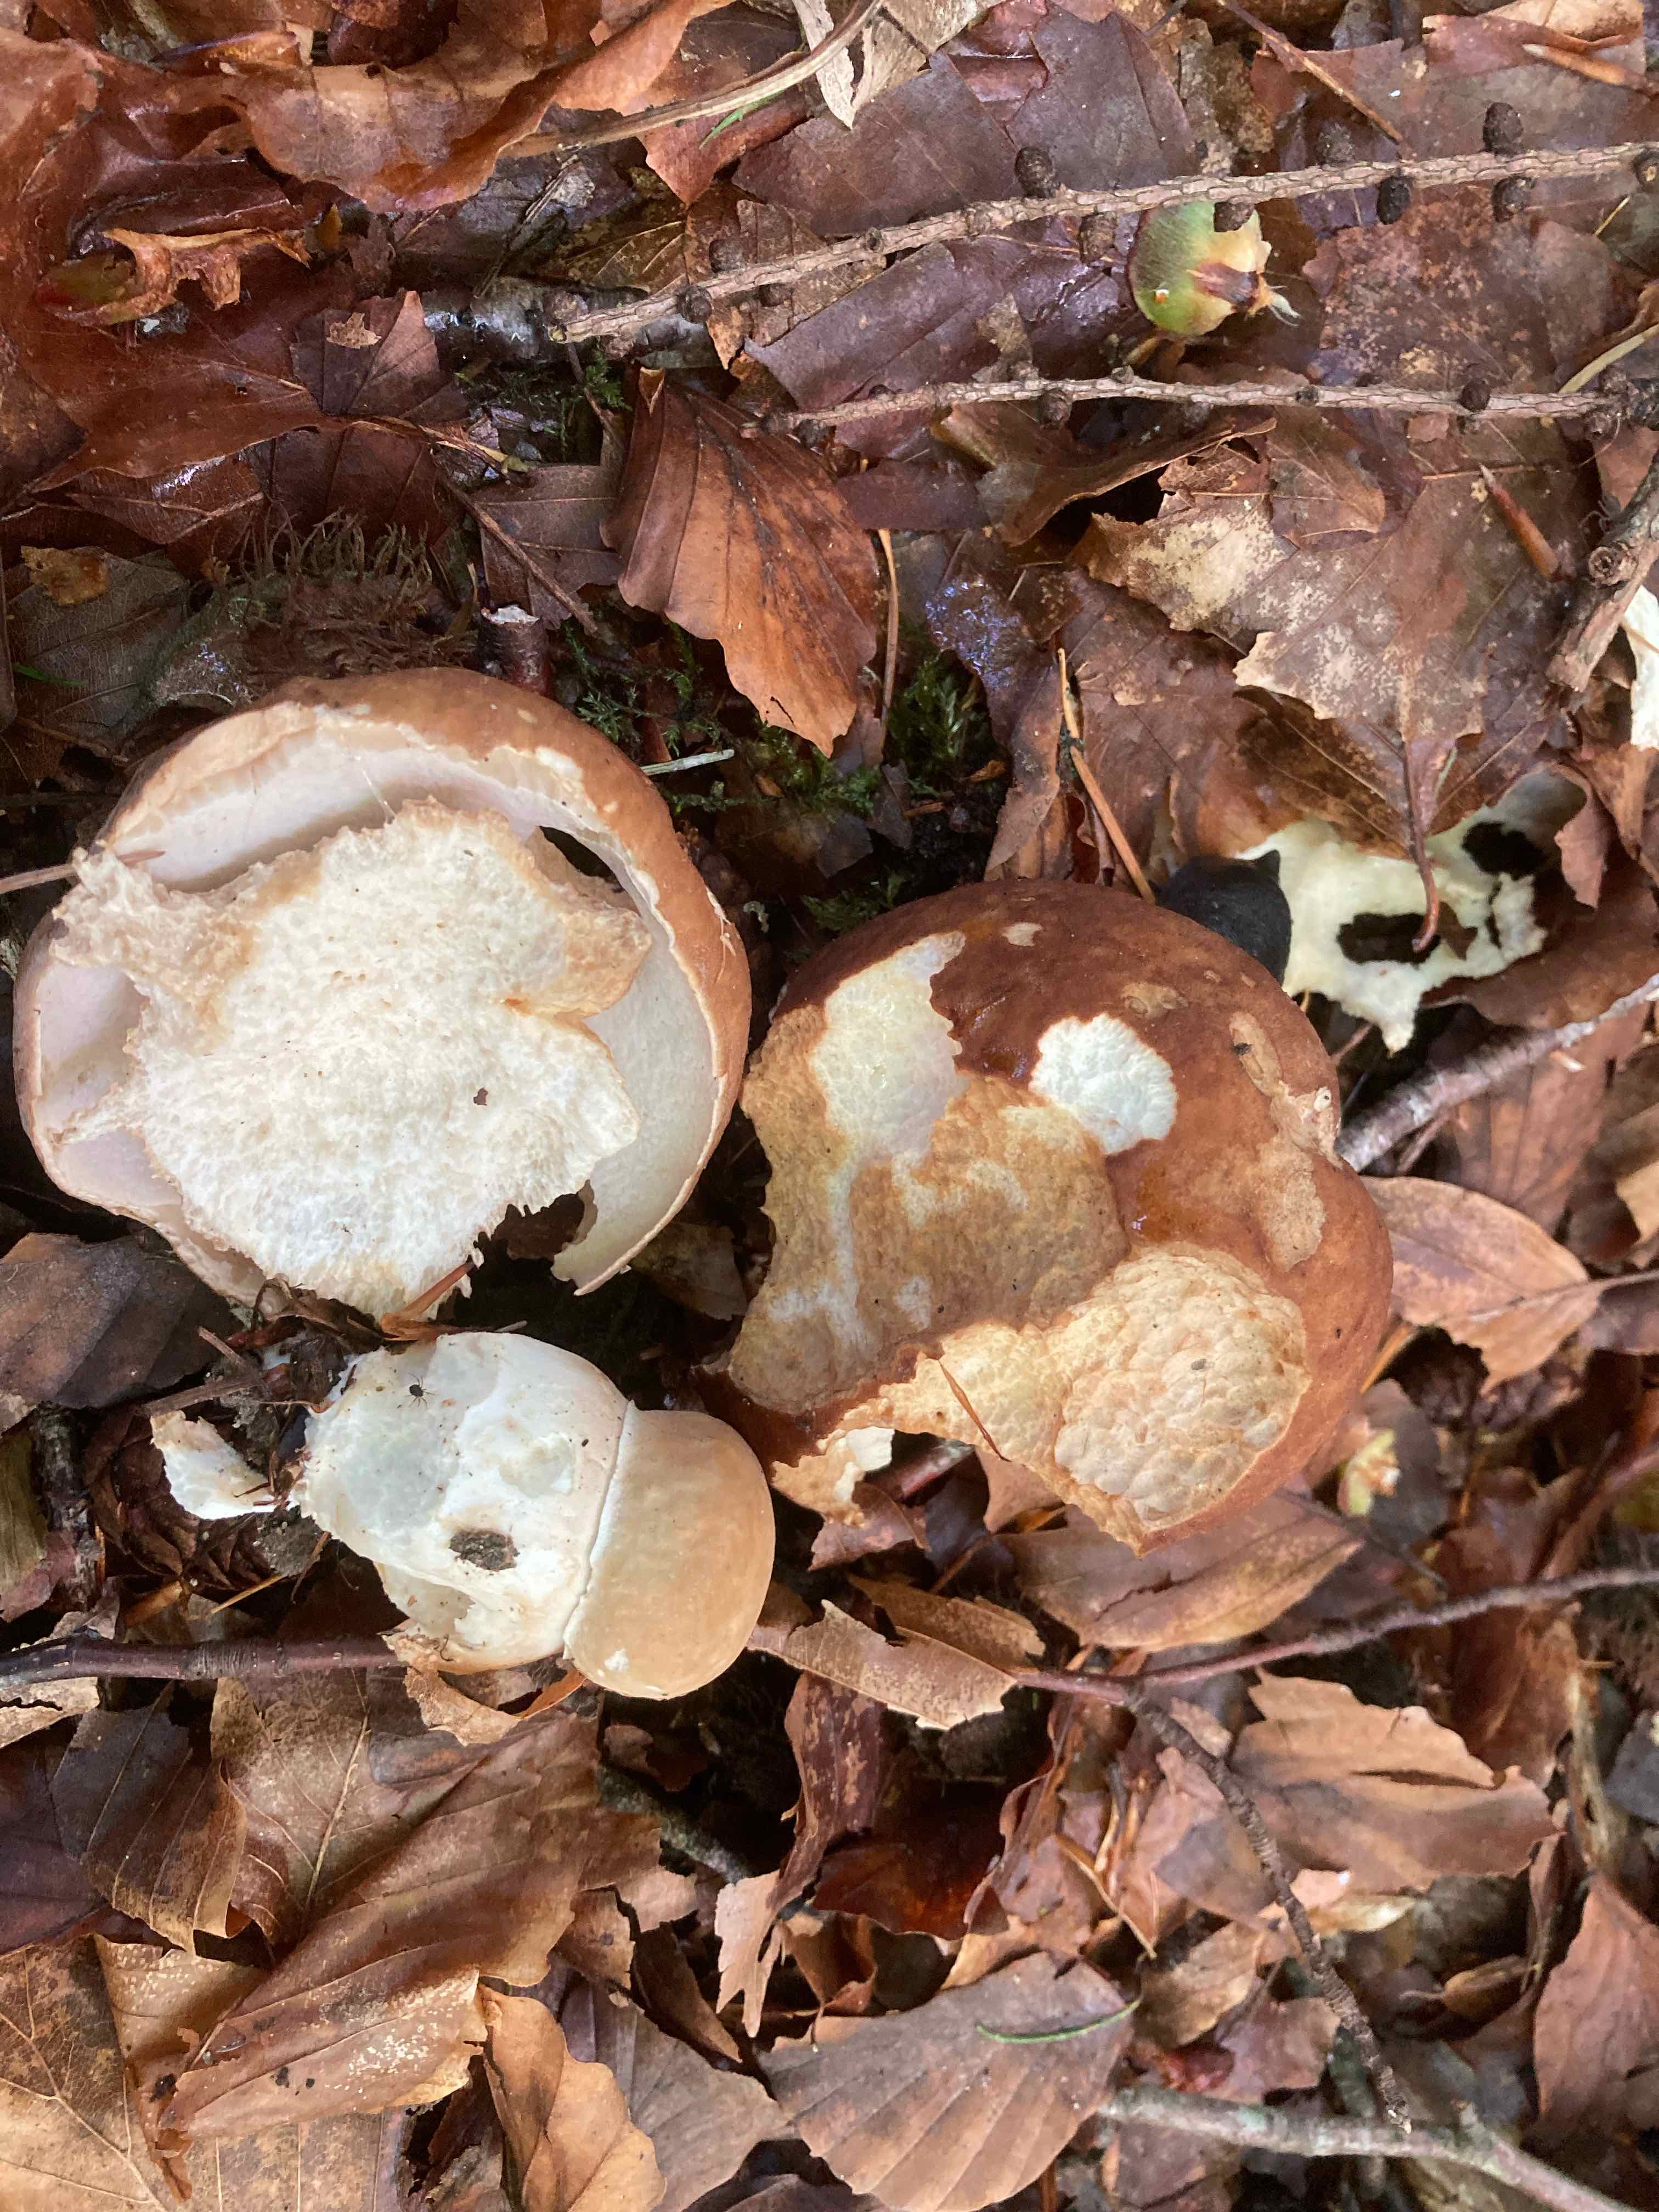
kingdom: Fungi
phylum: Basidiomycota
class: Agaricomycetes
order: Boletales
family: Boletaceae
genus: Boletus
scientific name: Boletus reticulatus
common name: sommer-rørhat
